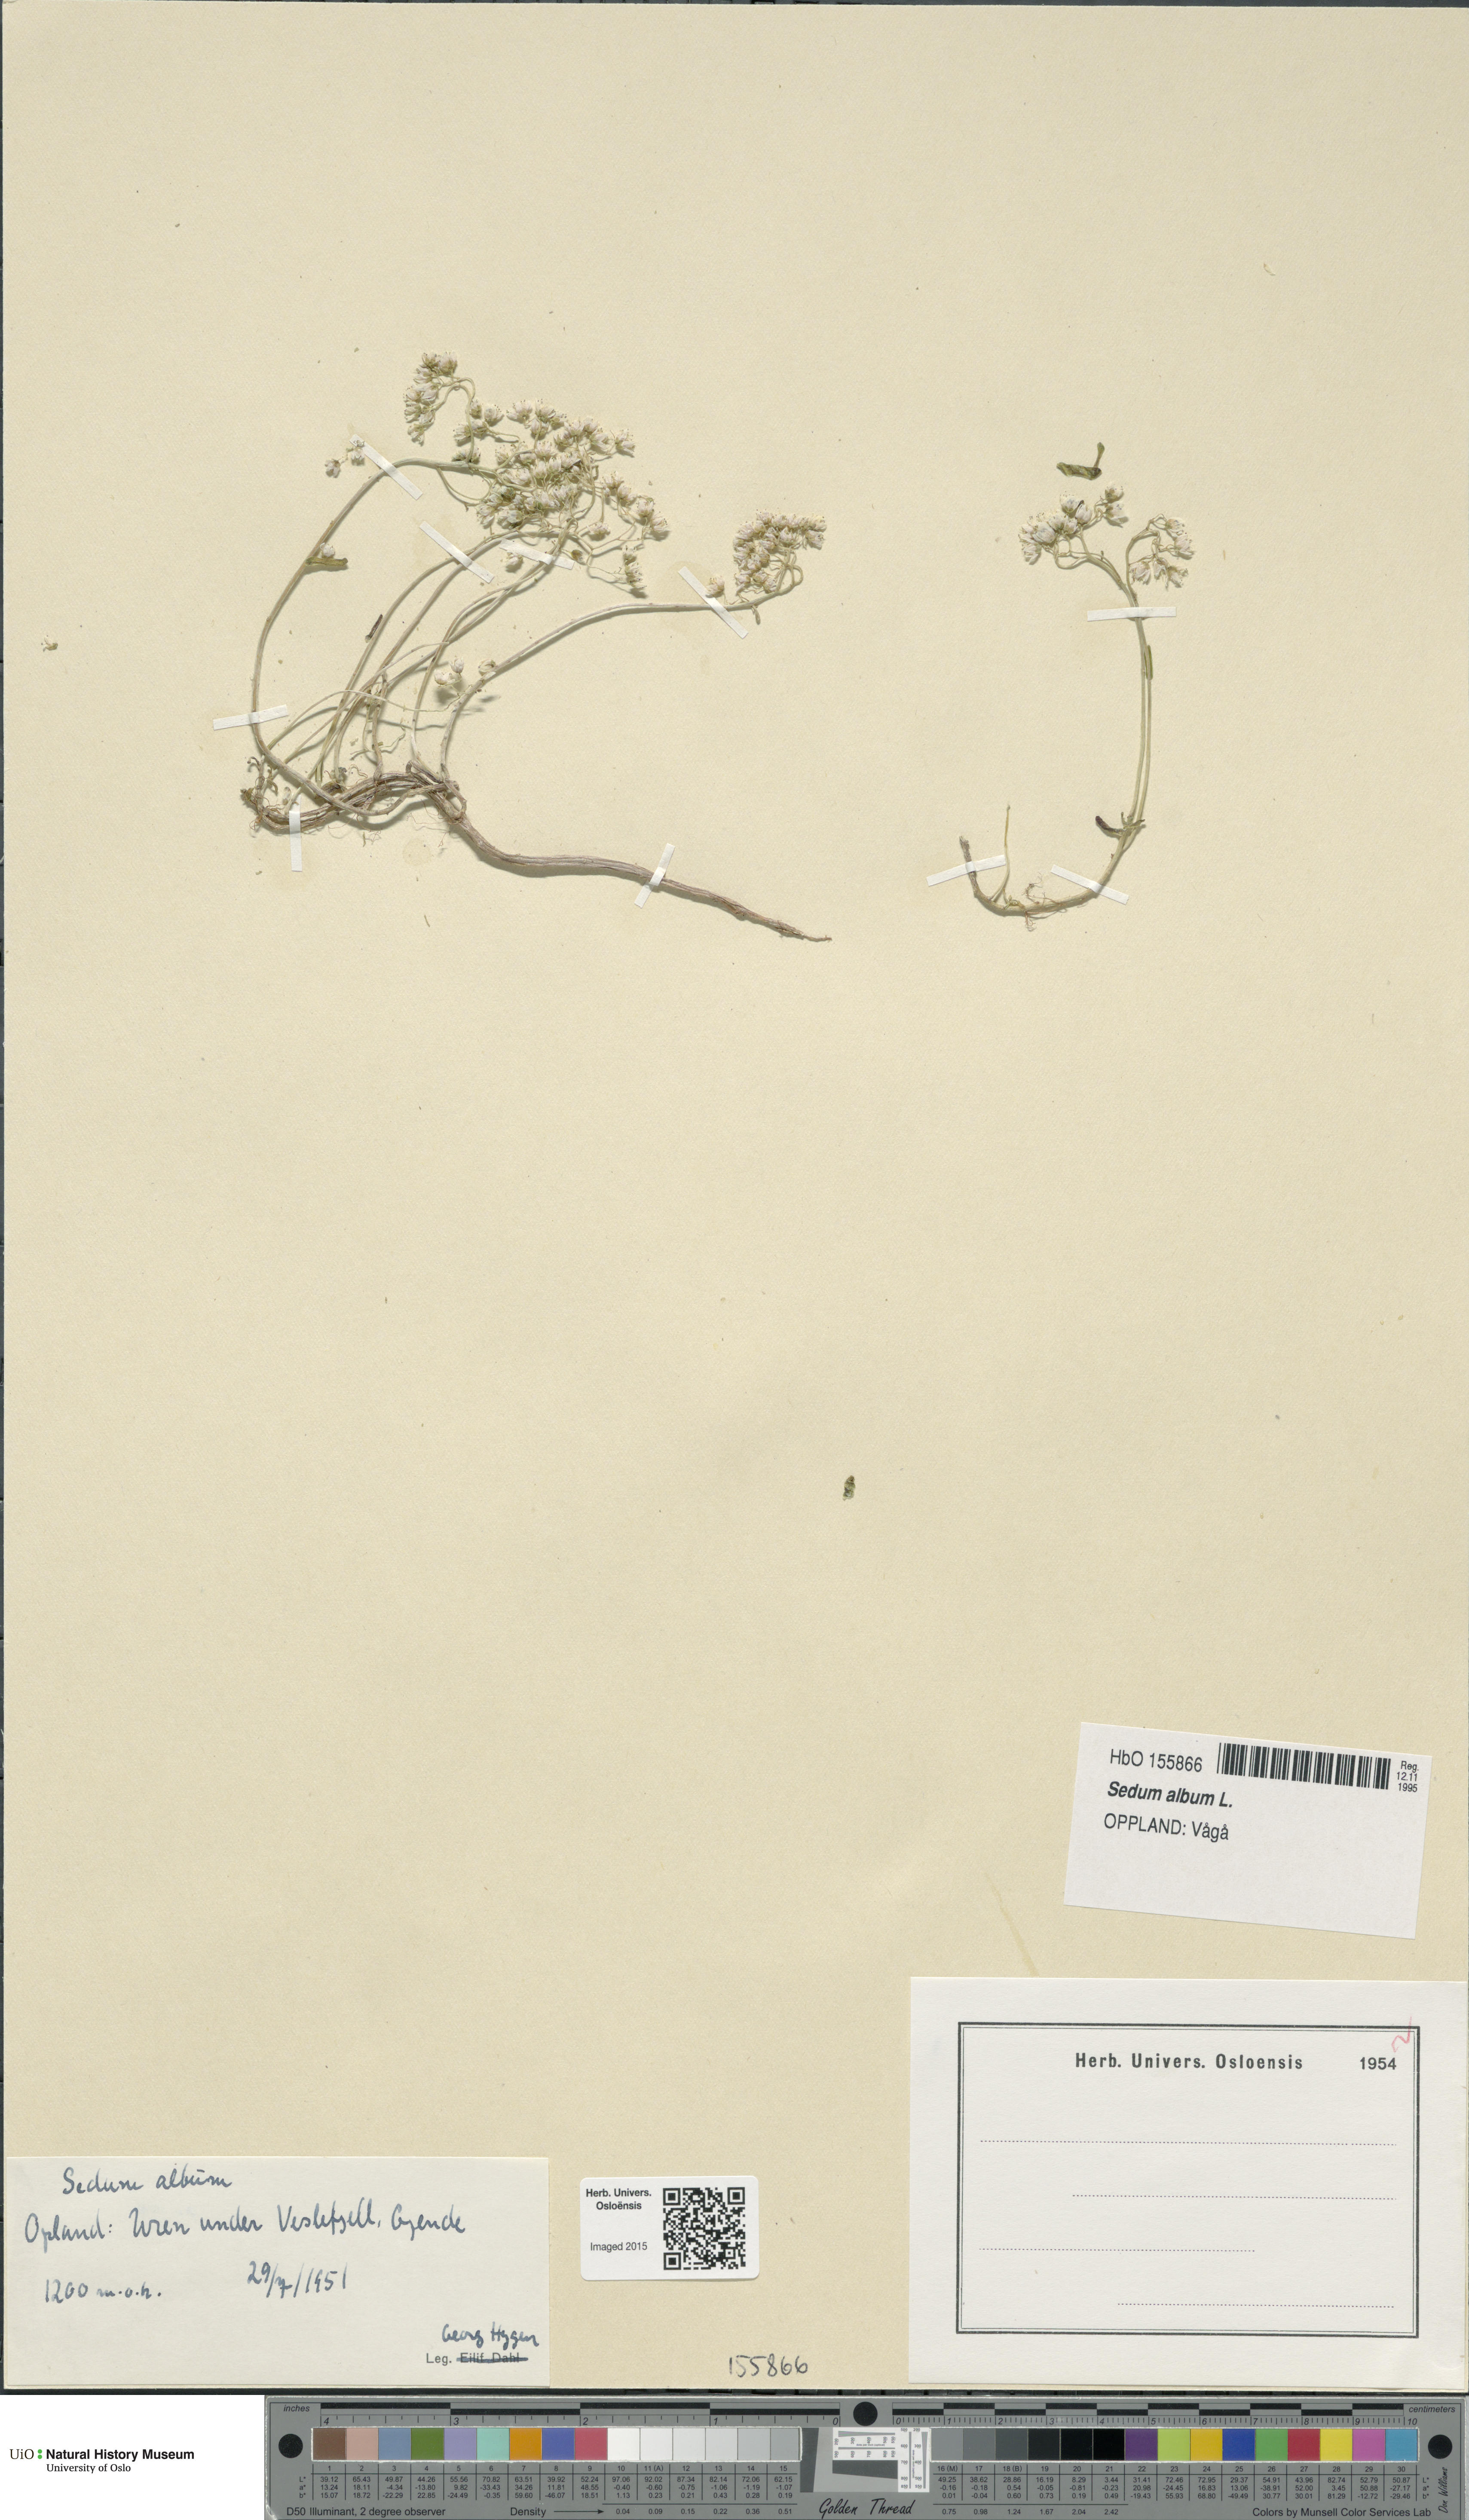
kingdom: Plantae
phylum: Tracheophyta
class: Magnoliopsida
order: Saxifragales
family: Crassulaceae
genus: Sedum
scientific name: Sedum album
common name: White stonecrop
